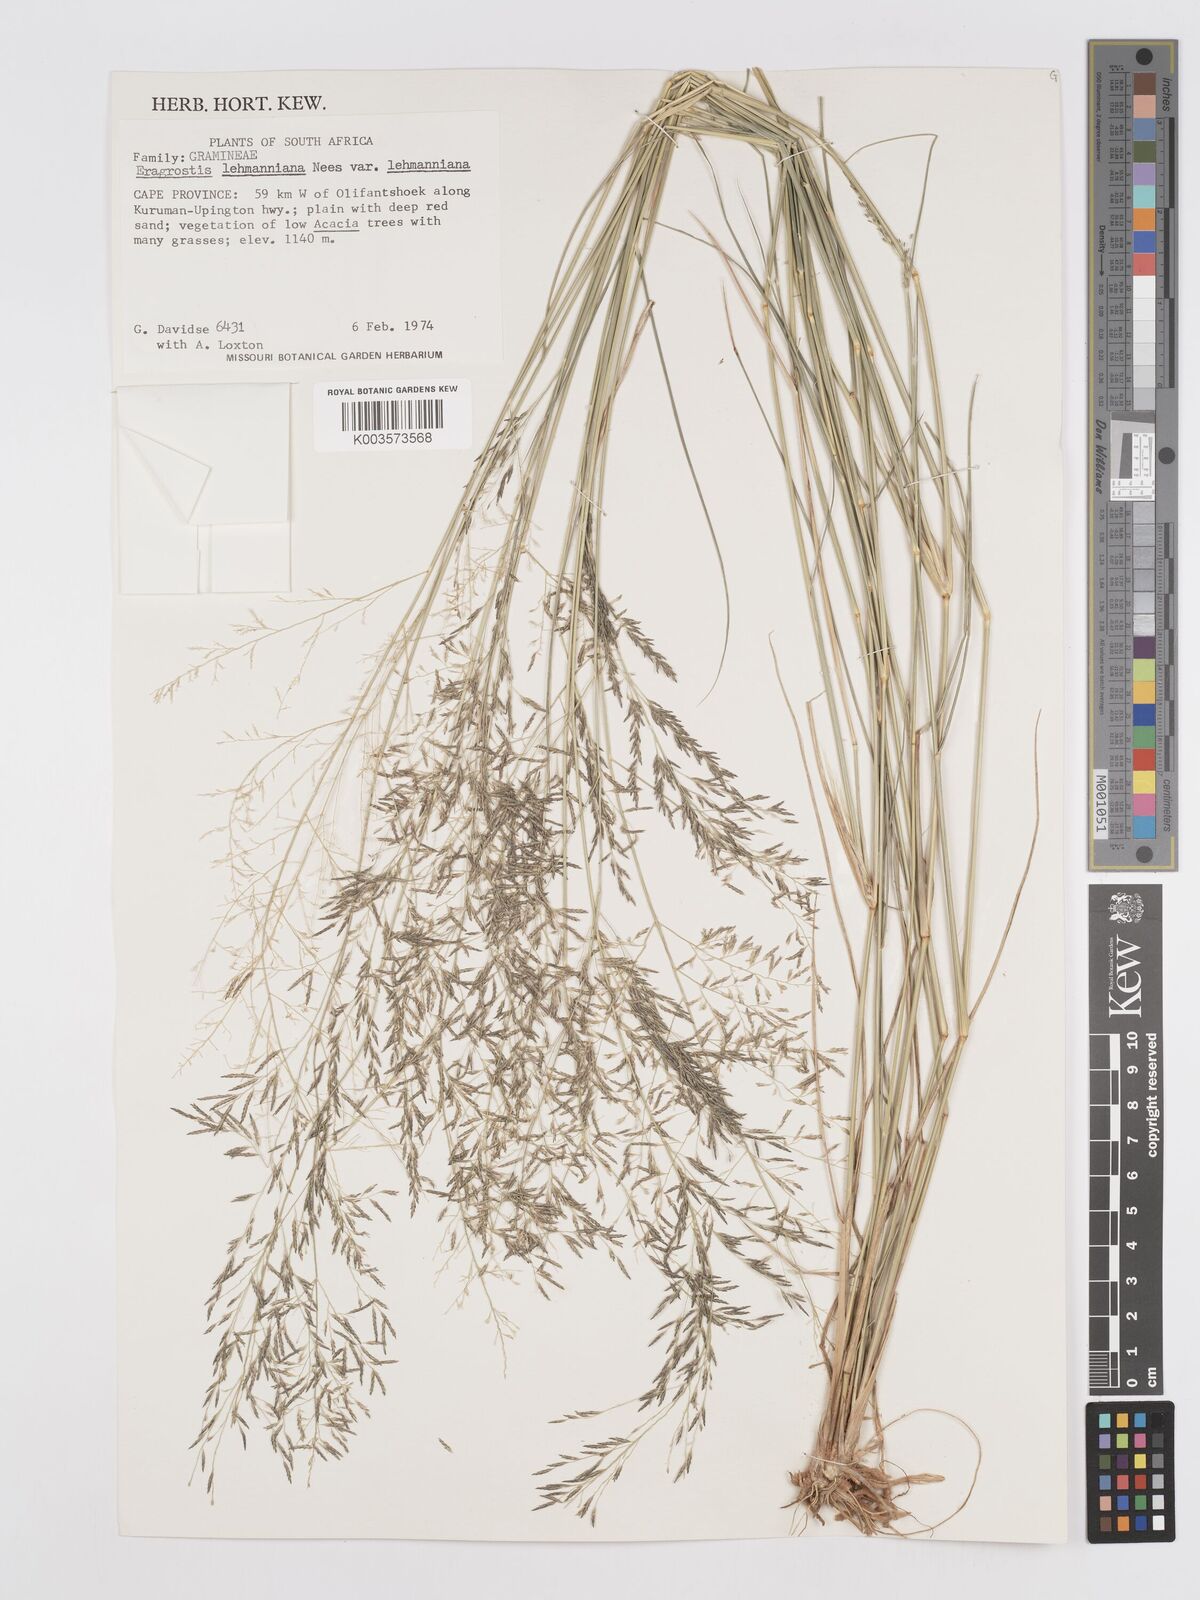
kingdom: Plantae
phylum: Tracheophyta
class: Liliopsida
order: Poales
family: Poaceae
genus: Eragrostis
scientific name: Eragrostis lehmanniana
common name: Lehmann lovegrass
